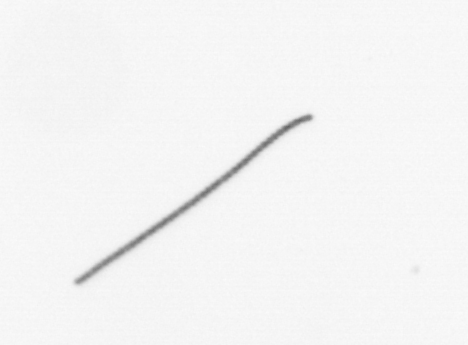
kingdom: Chromista
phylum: Ochrophyta
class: Bacillariophyceae
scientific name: Bacillariophyceae
